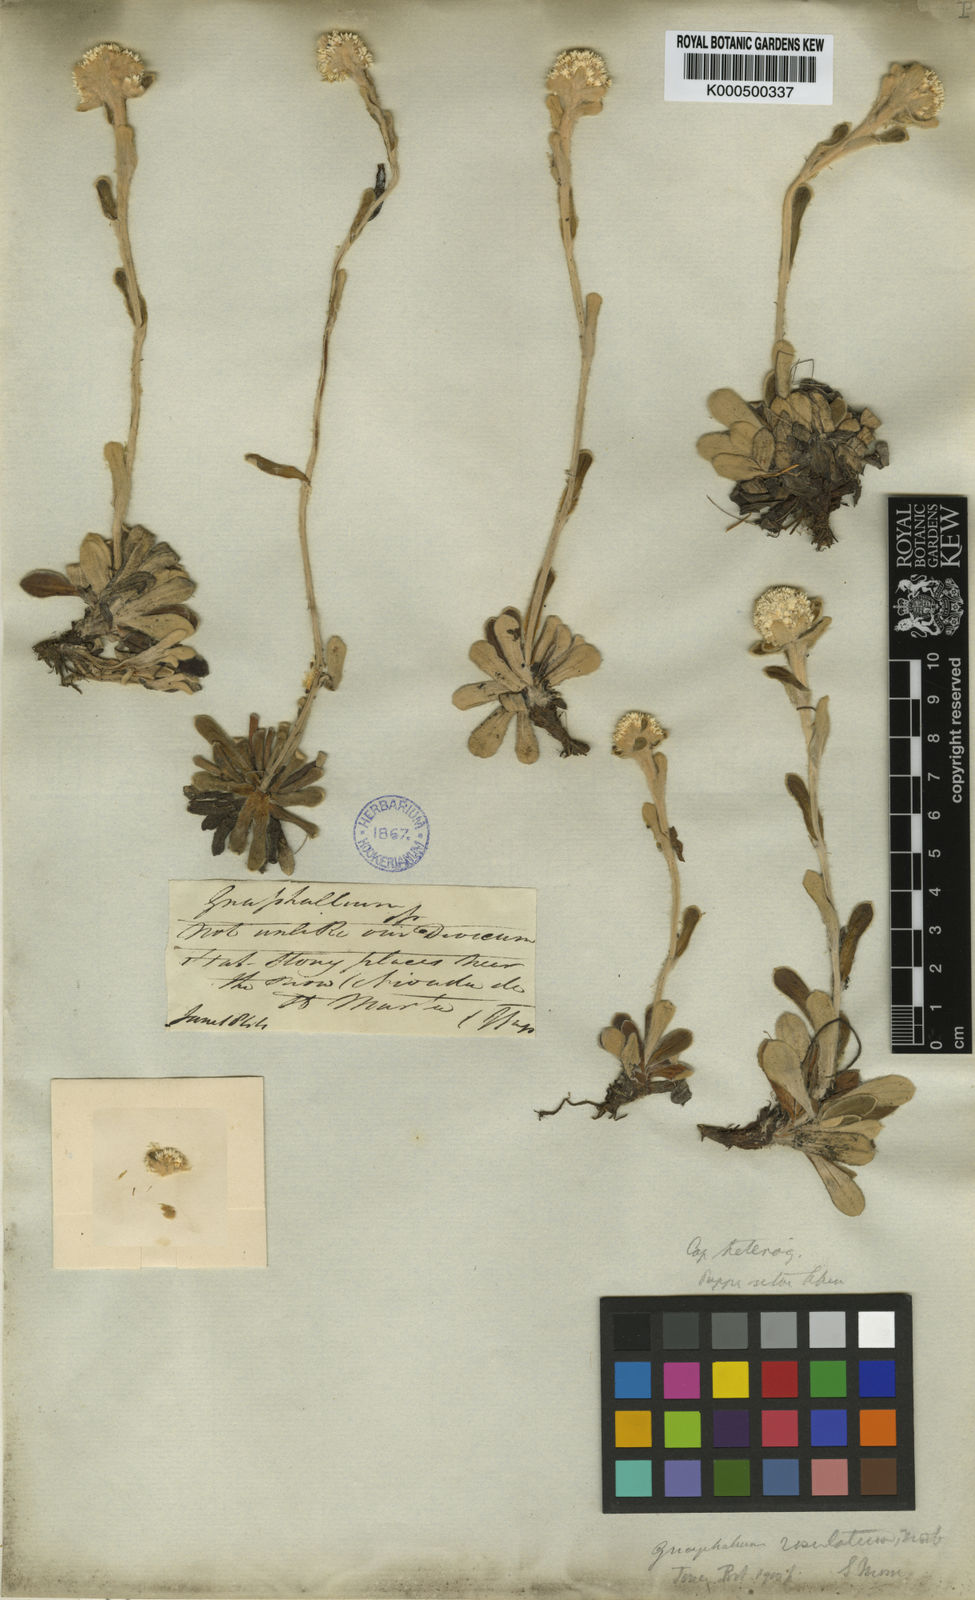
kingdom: Plantae
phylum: Tracheophyta
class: Magnoliopsida
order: Asterales
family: Asteraceae
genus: Gnaphalium
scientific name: Gnaphalium rosulatum
